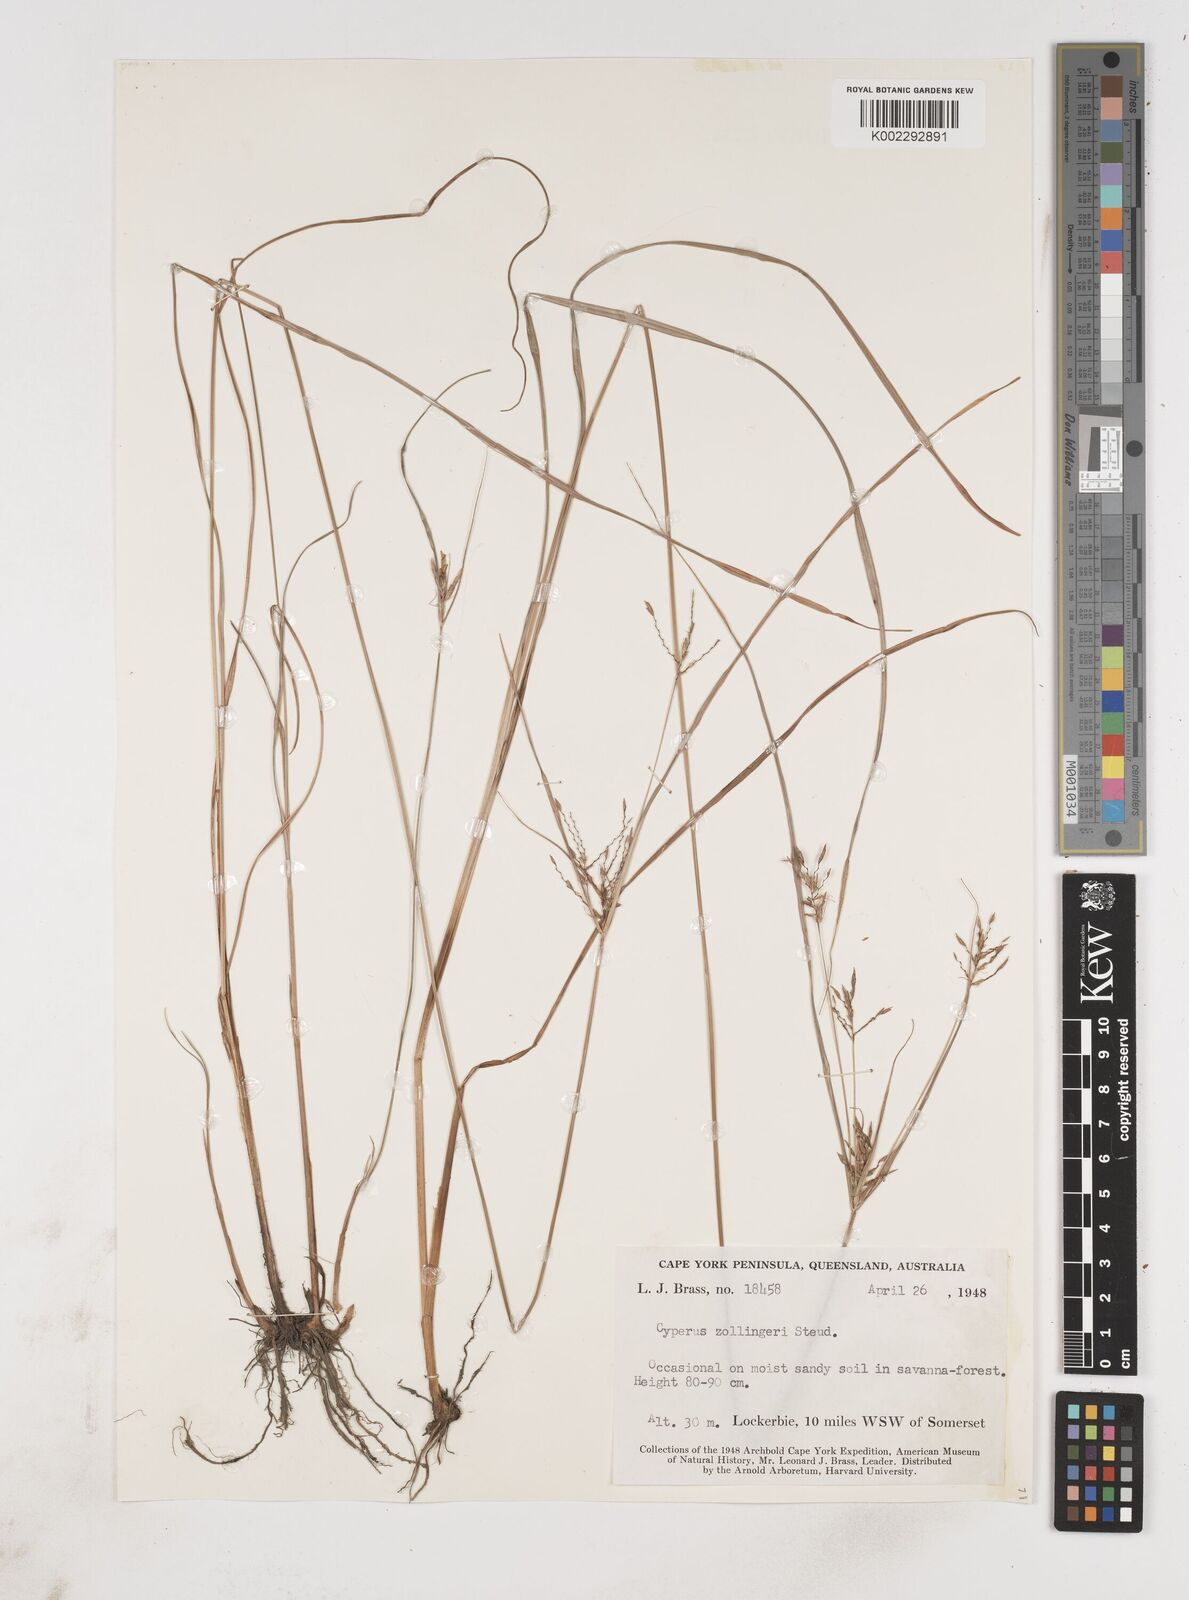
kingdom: Plantae
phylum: Tracheophyta
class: Liliopsida
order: Poales
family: Cyperaceae
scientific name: Cyperaceae
